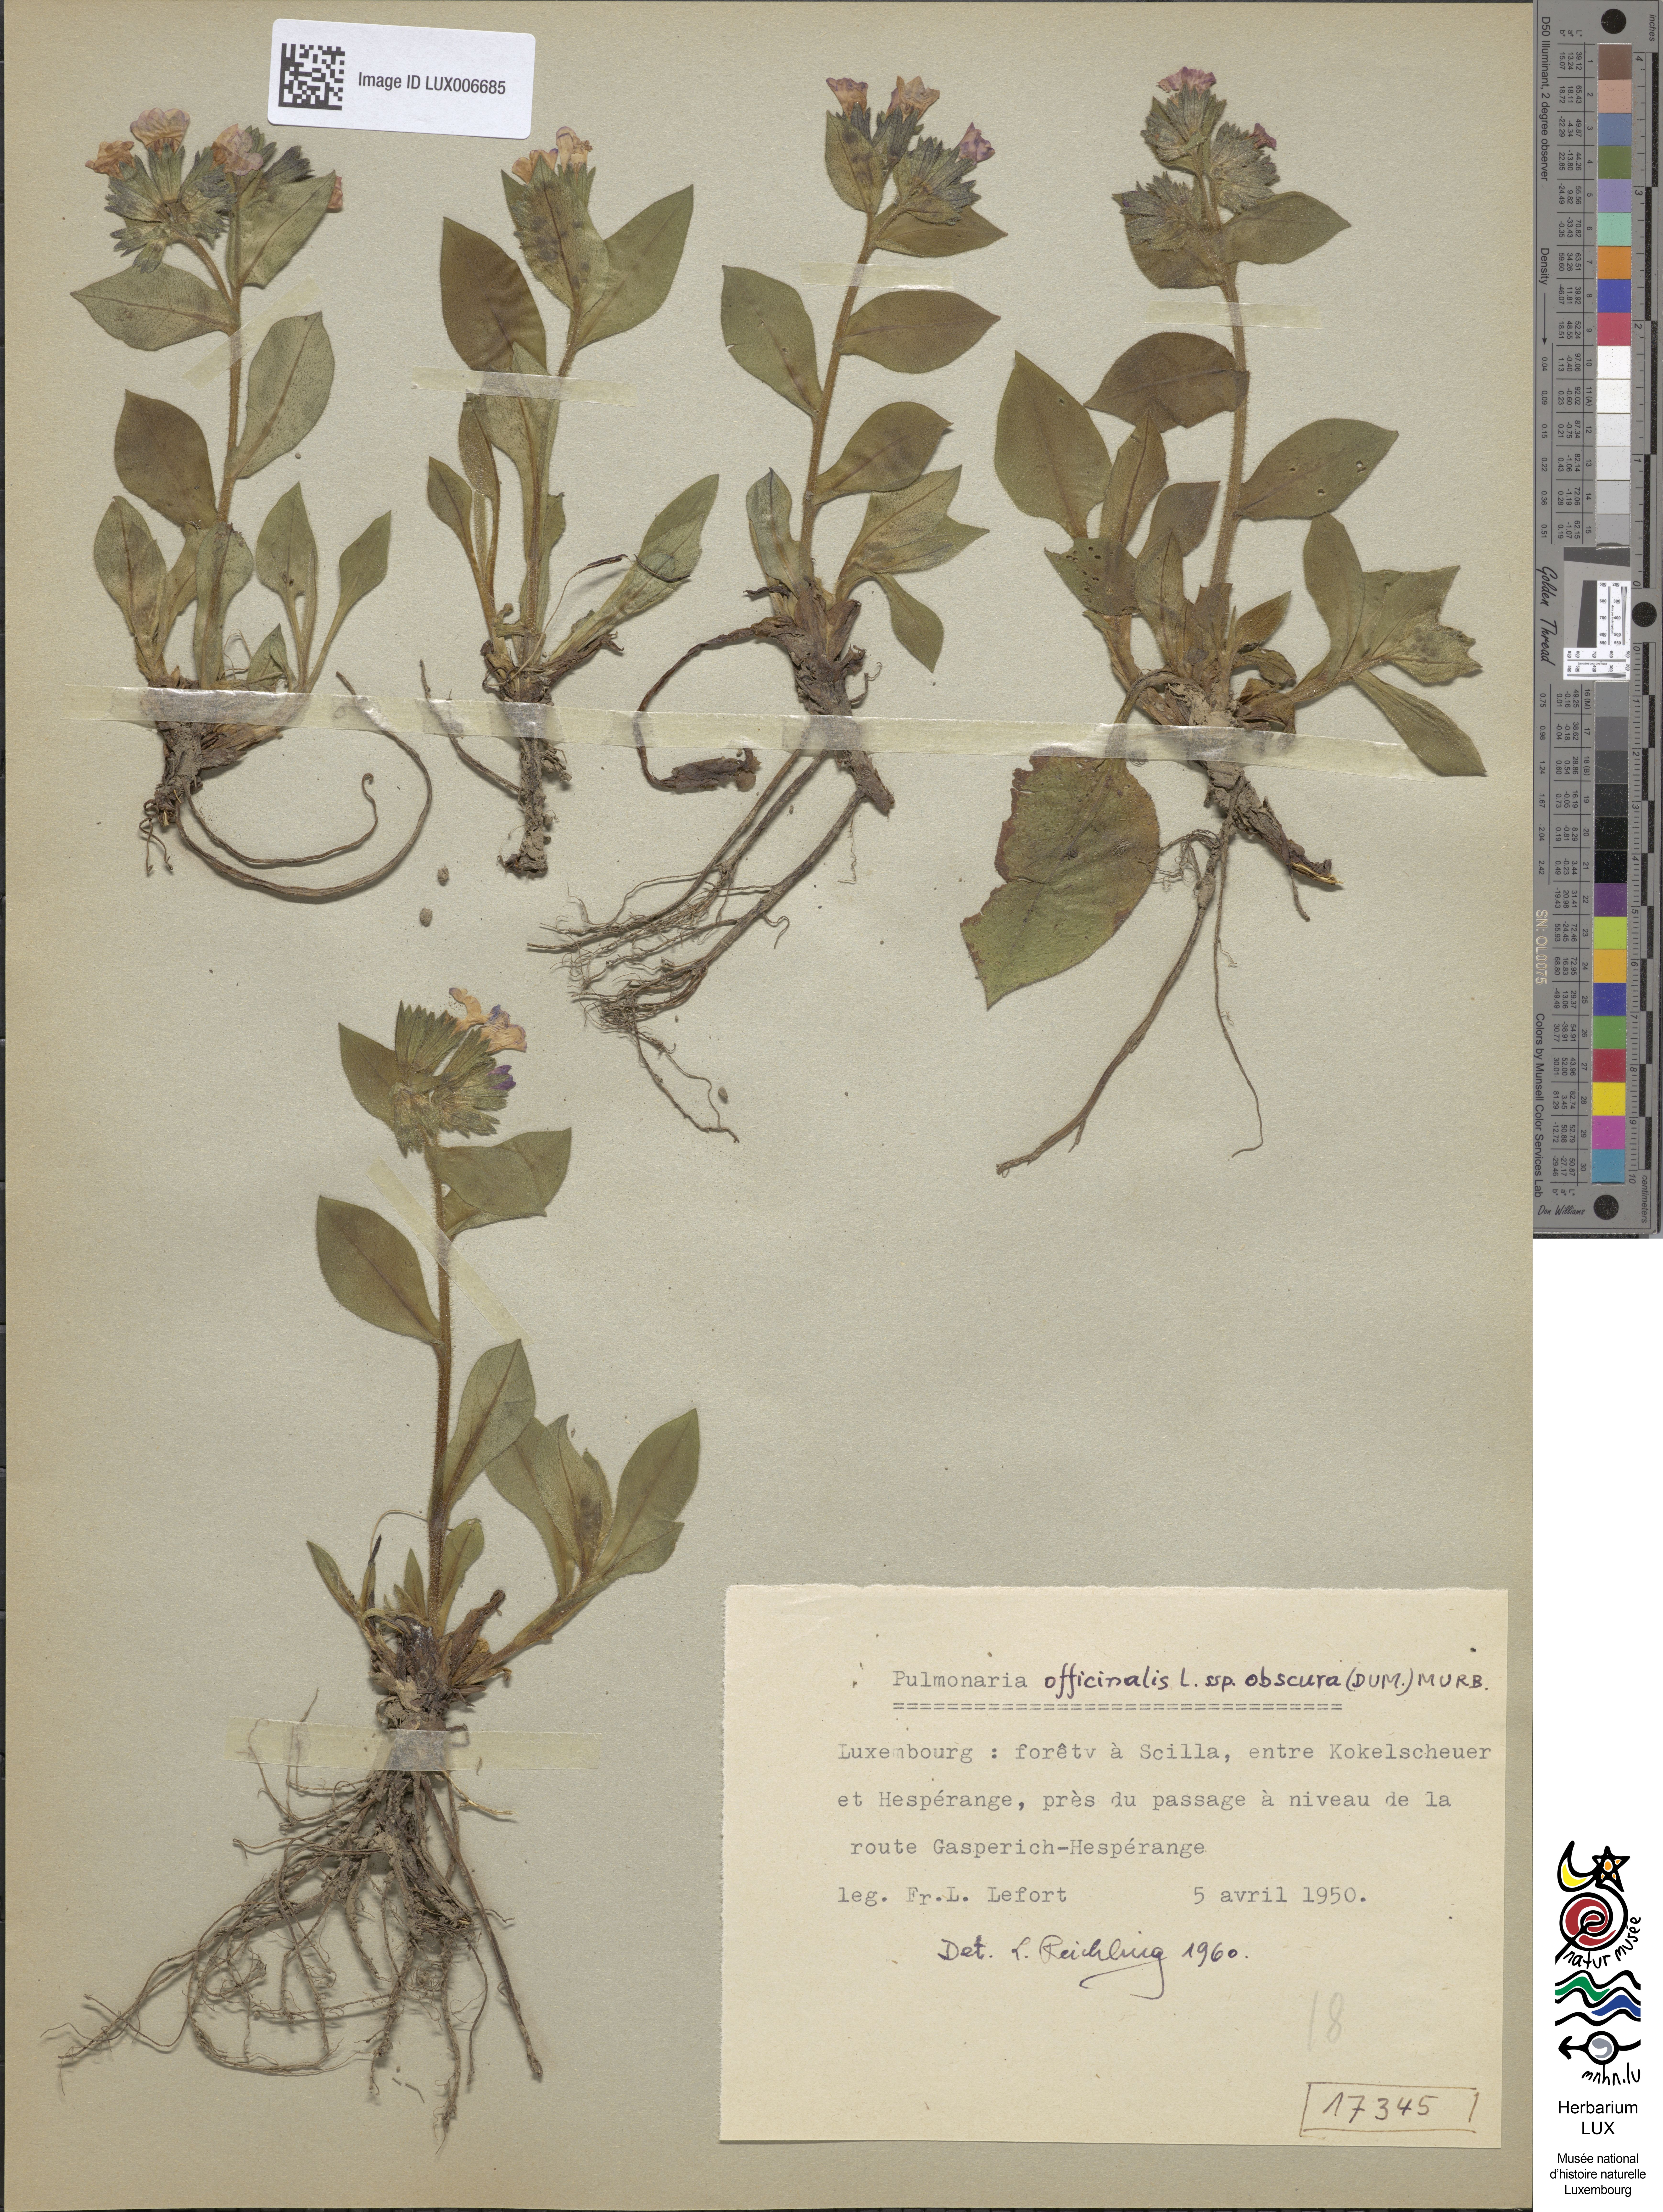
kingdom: Plantae
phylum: Tracheophyta
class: Magnoliopsida
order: Boraginales
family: Boraginaceae
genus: Pulmonaria
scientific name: Pulmonaria obscura
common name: Suffolk lungwort
